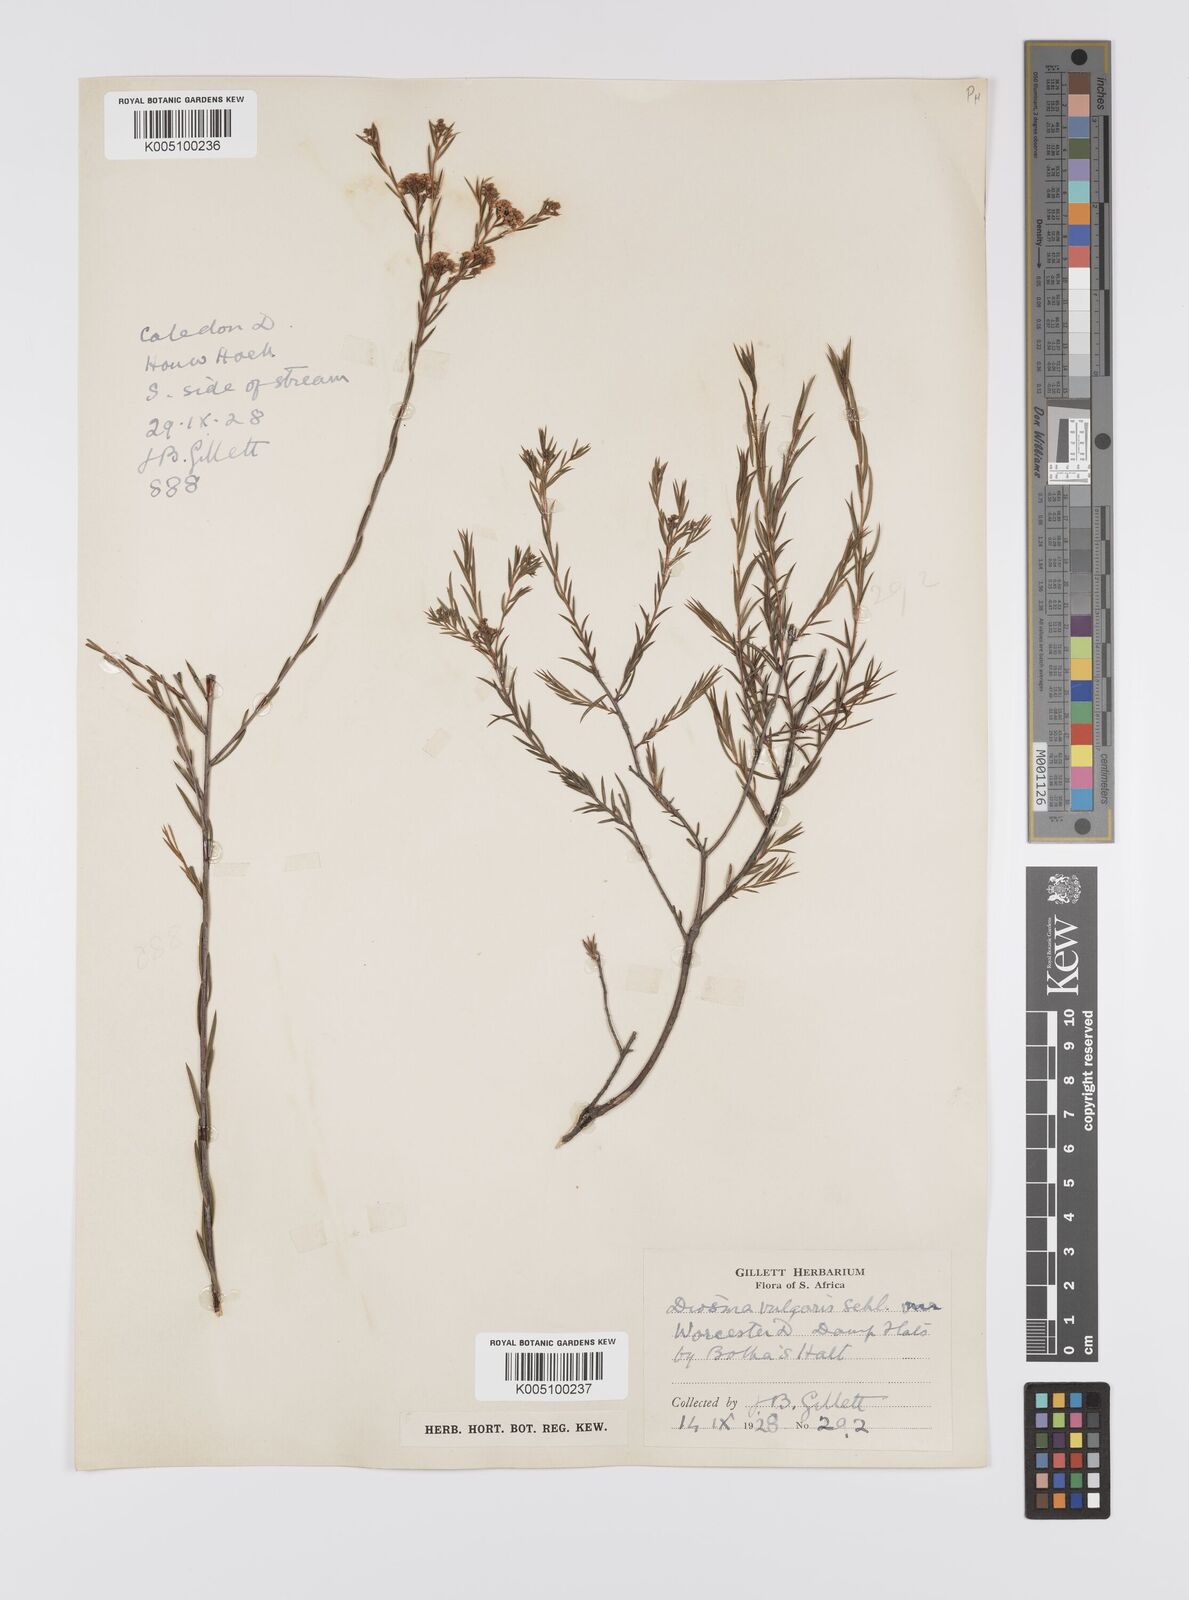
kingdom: Plantae
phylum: Tracheophyta
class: Magnoliopsida
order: Sapindales
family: Rutaceae
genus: Diosma
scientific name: Diosma hirsuta
